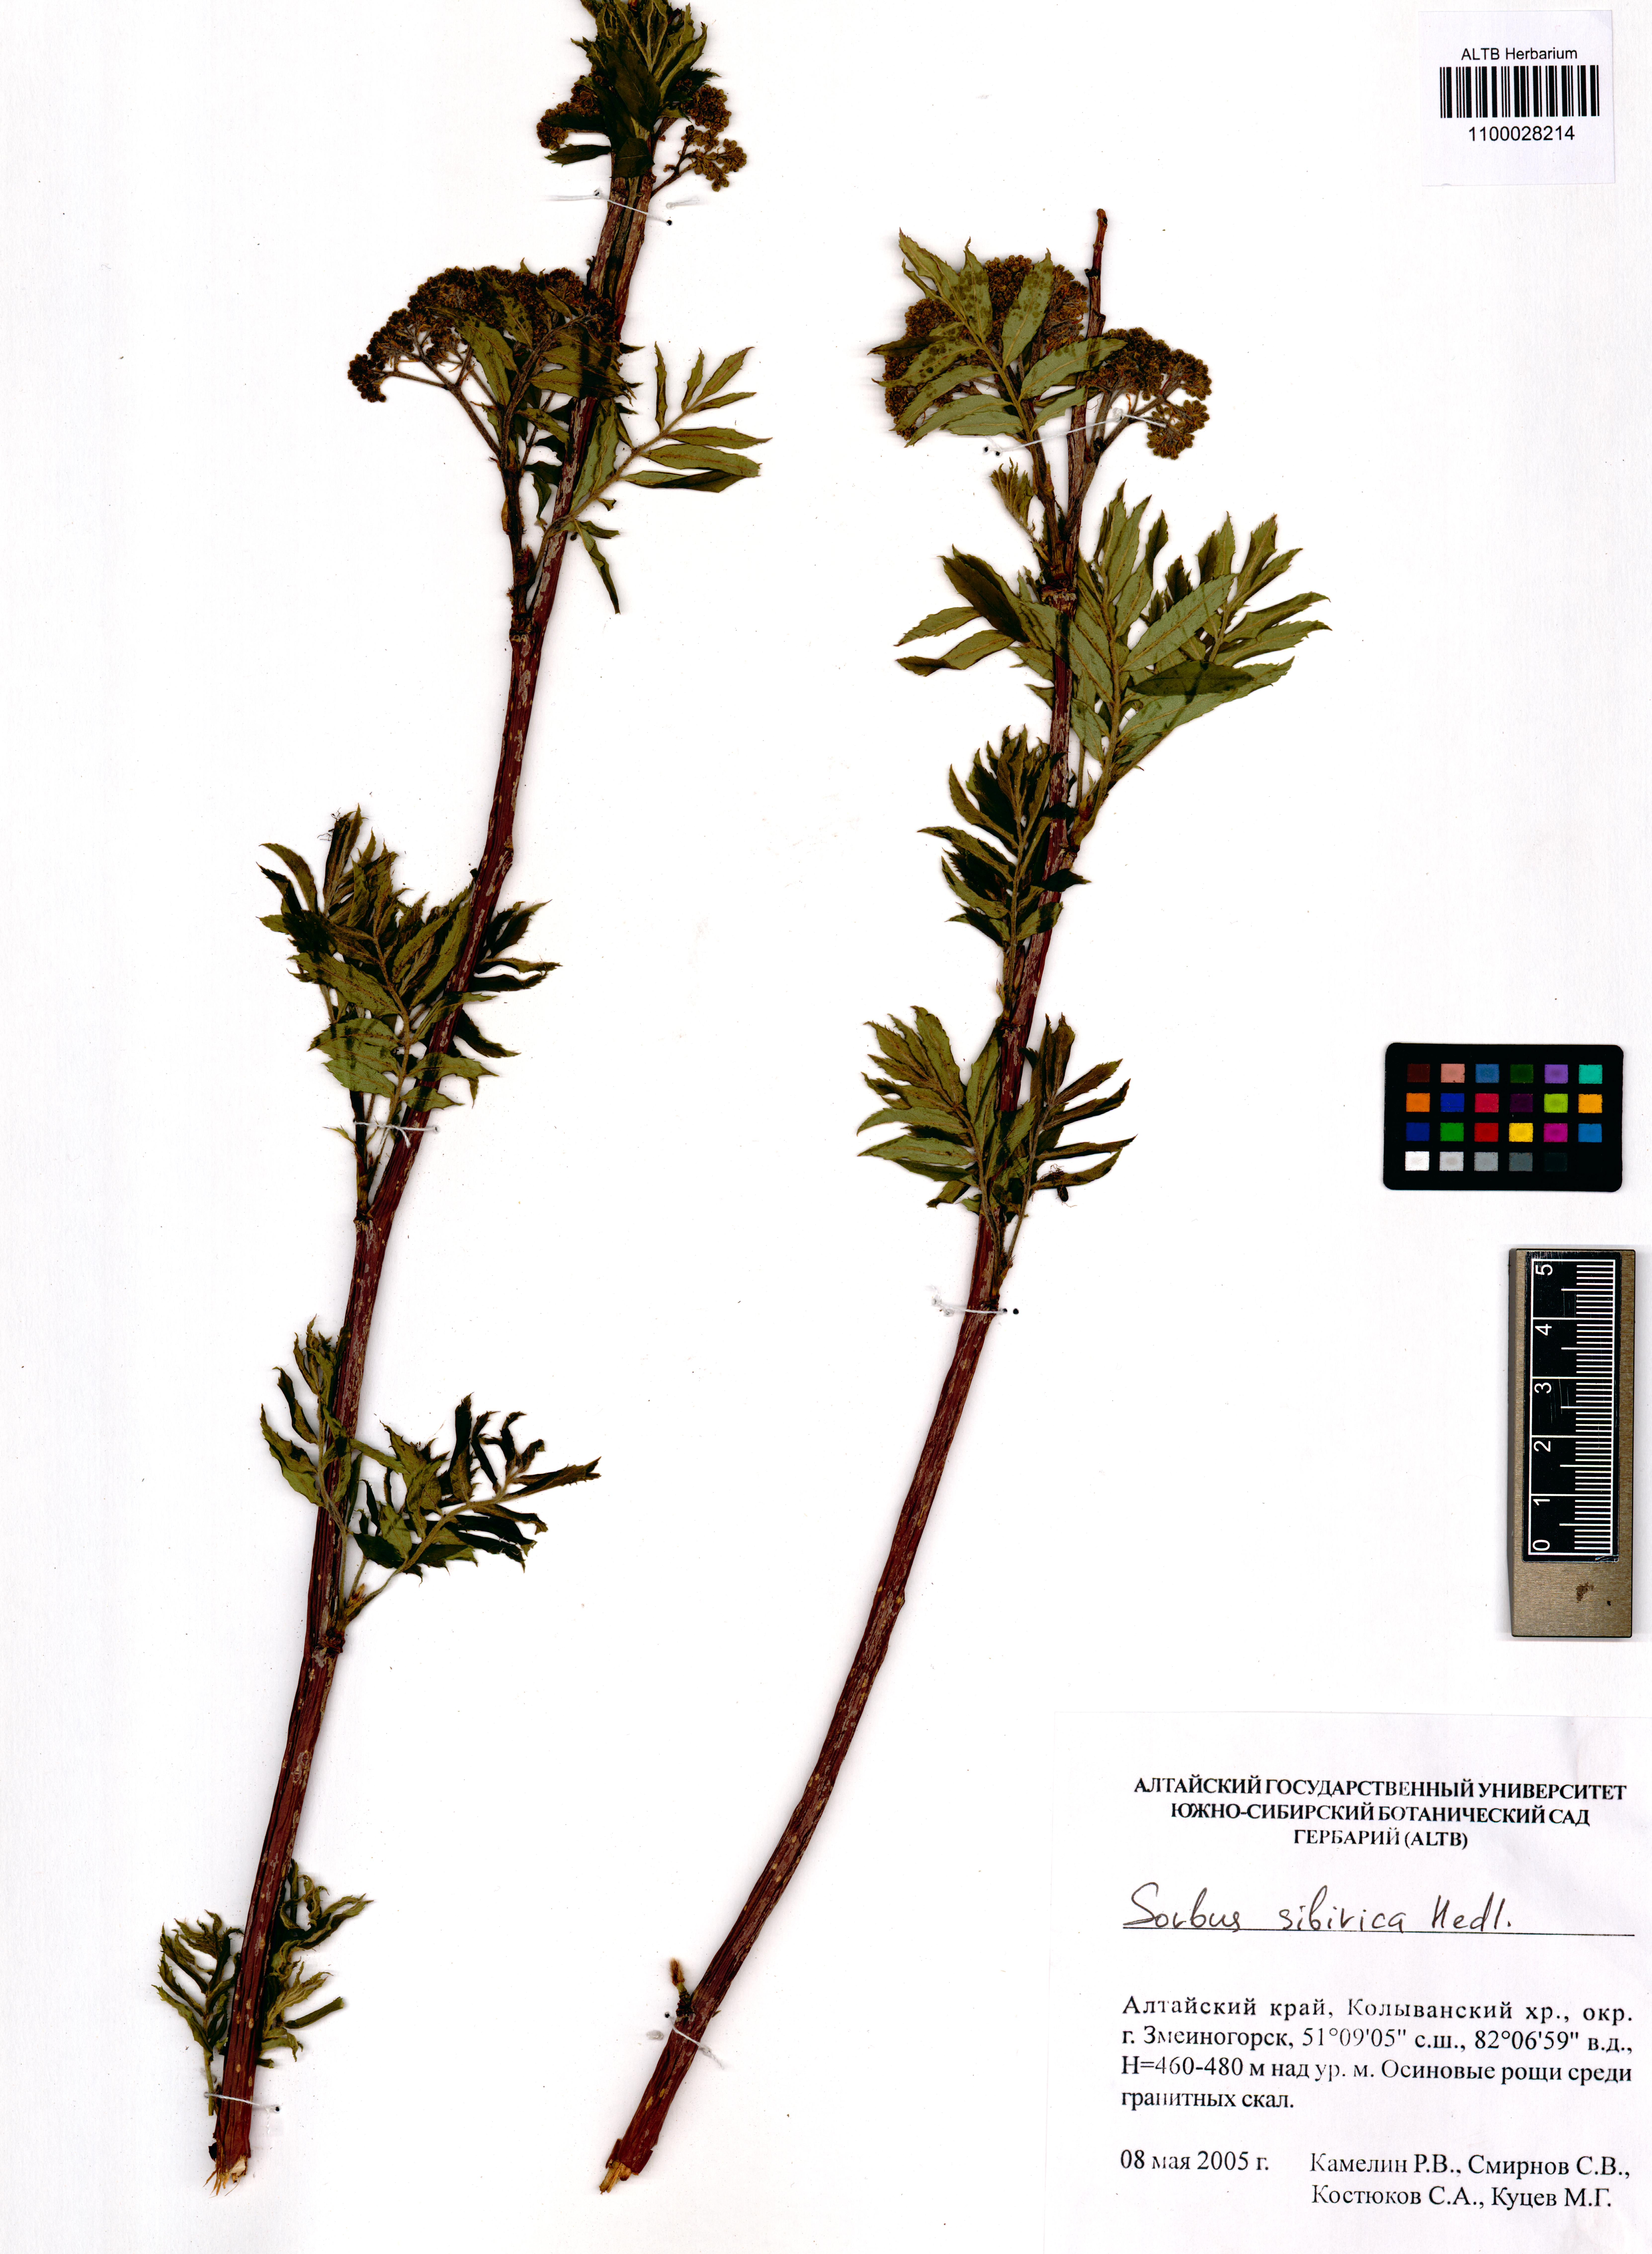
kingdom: Plantae
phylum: Tracheophyta
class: Magnoliopsida
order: Rosales
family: Rosaceae
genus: Sorbus
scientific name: Sorbus aucuparia
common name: Rowan
